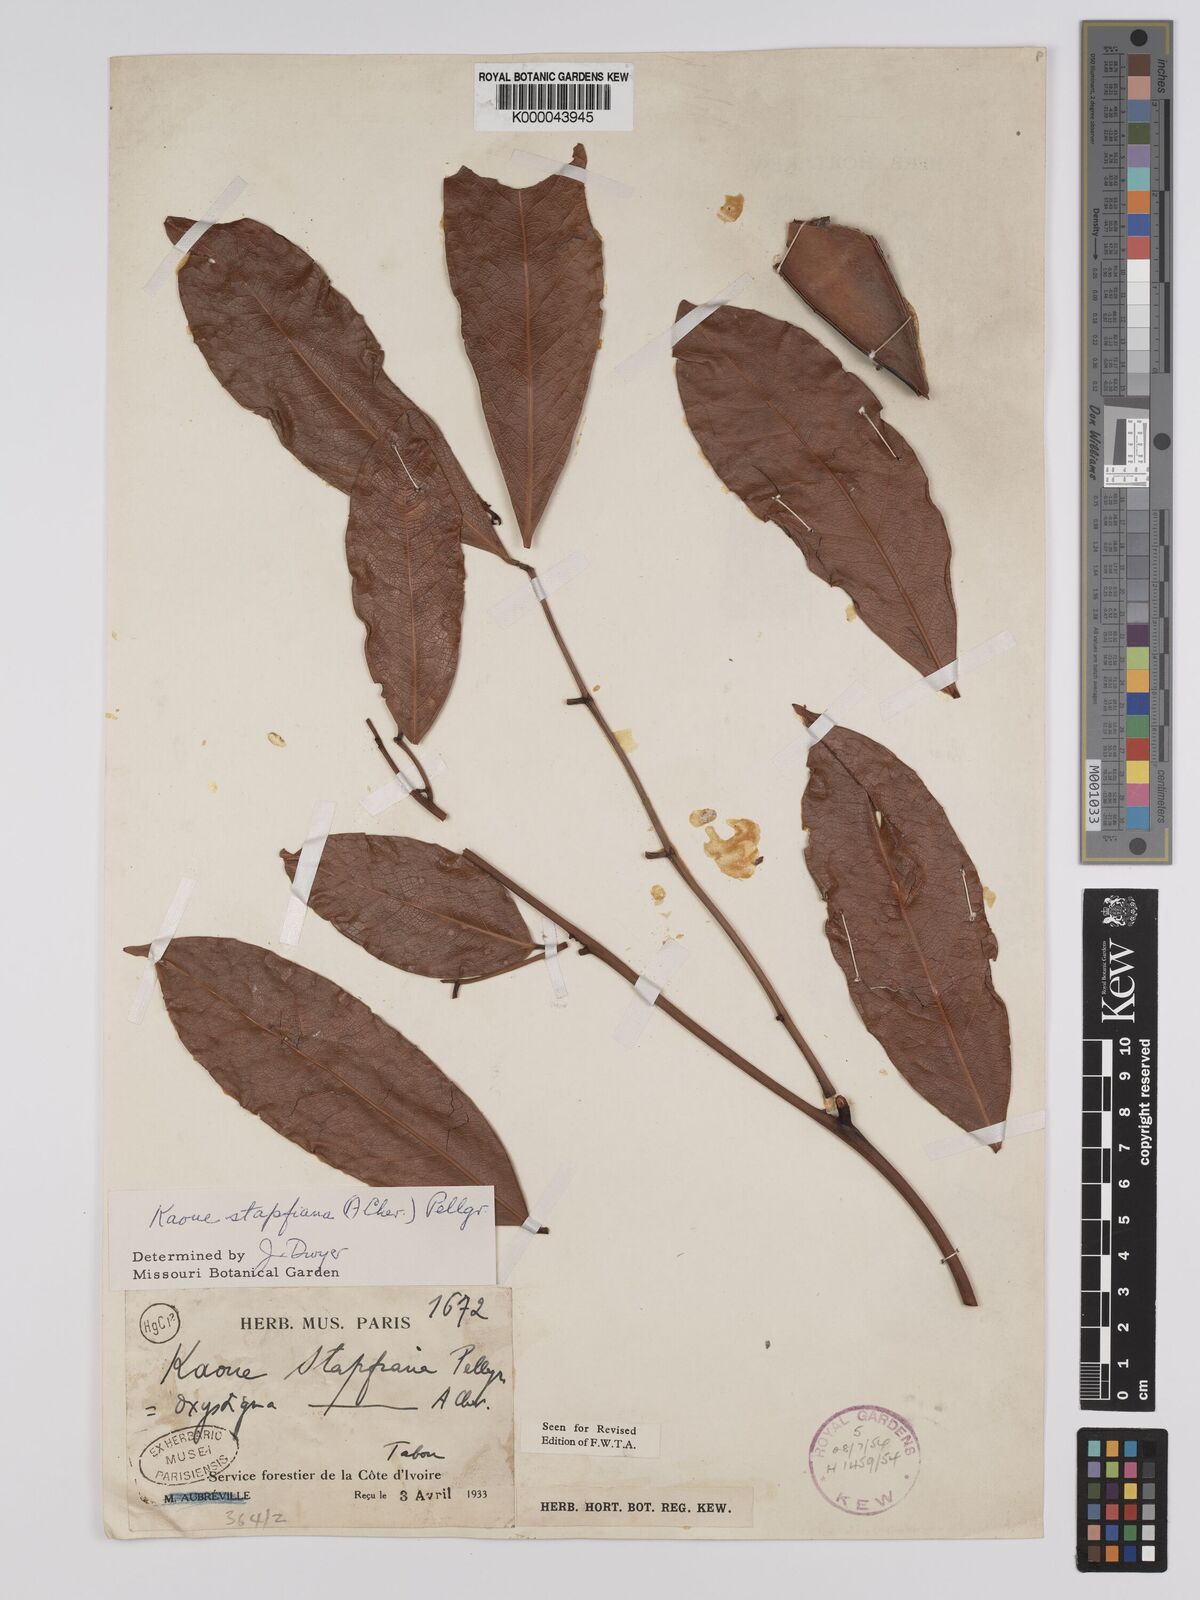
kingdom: Plantae
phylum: Tracheophyta
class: Magnoliopsida
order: Fabales
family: Fabaceae
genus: Stachyothyrsus
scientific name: Stachyothyrsus
